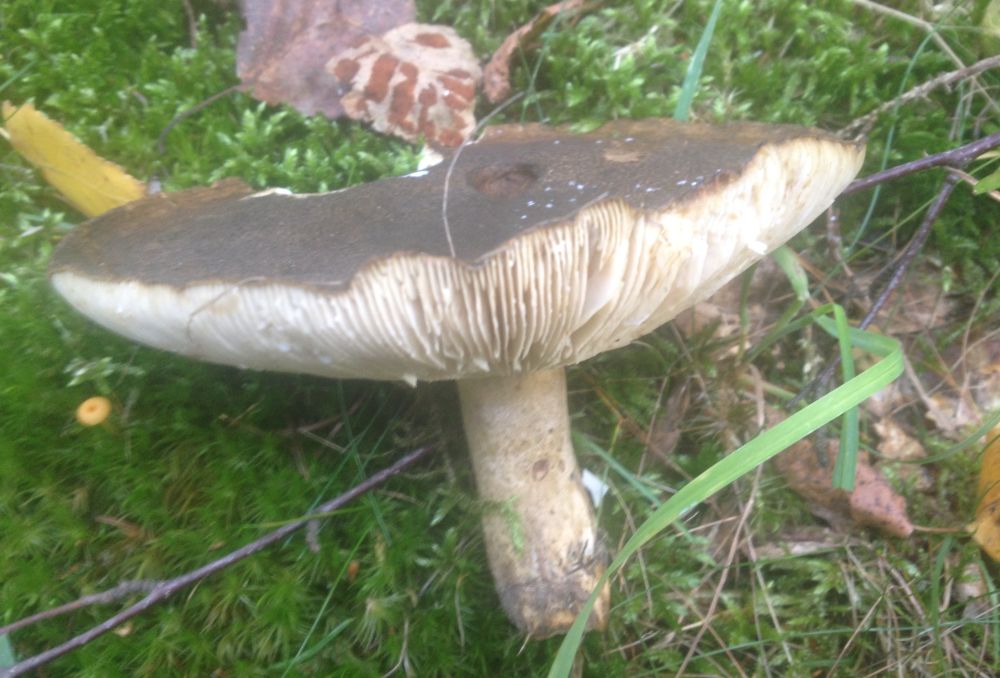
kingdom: Fungi
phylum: Basidiomycota
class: Agaricomycetes
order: Russulales
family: Russulaceae
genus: Lactarius
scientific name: Lactarius necator
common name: manddraber-mælkehat
